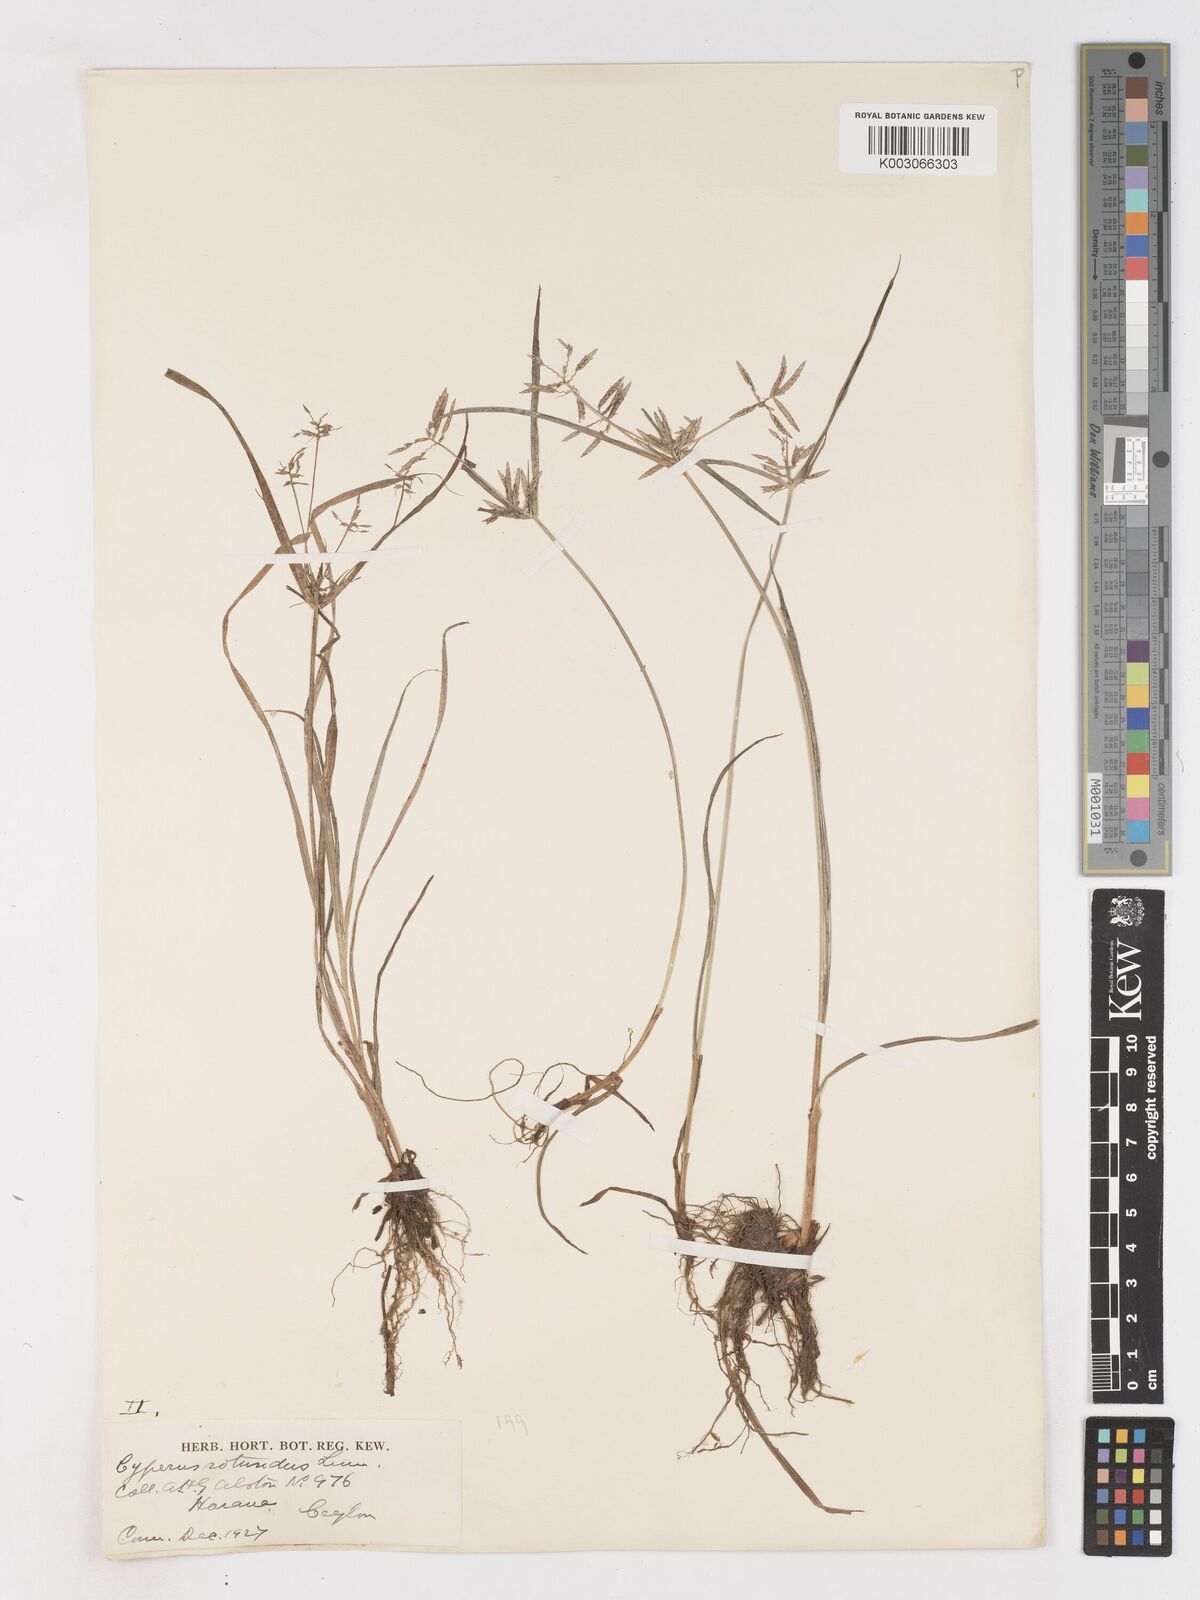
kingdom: Plantae
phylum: Tracheophyta
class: Liliopsida
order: Poales
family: Cyperaceae
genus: Cyperus
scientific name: Cyperus sphacelatus
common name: Roadside flatsedge
